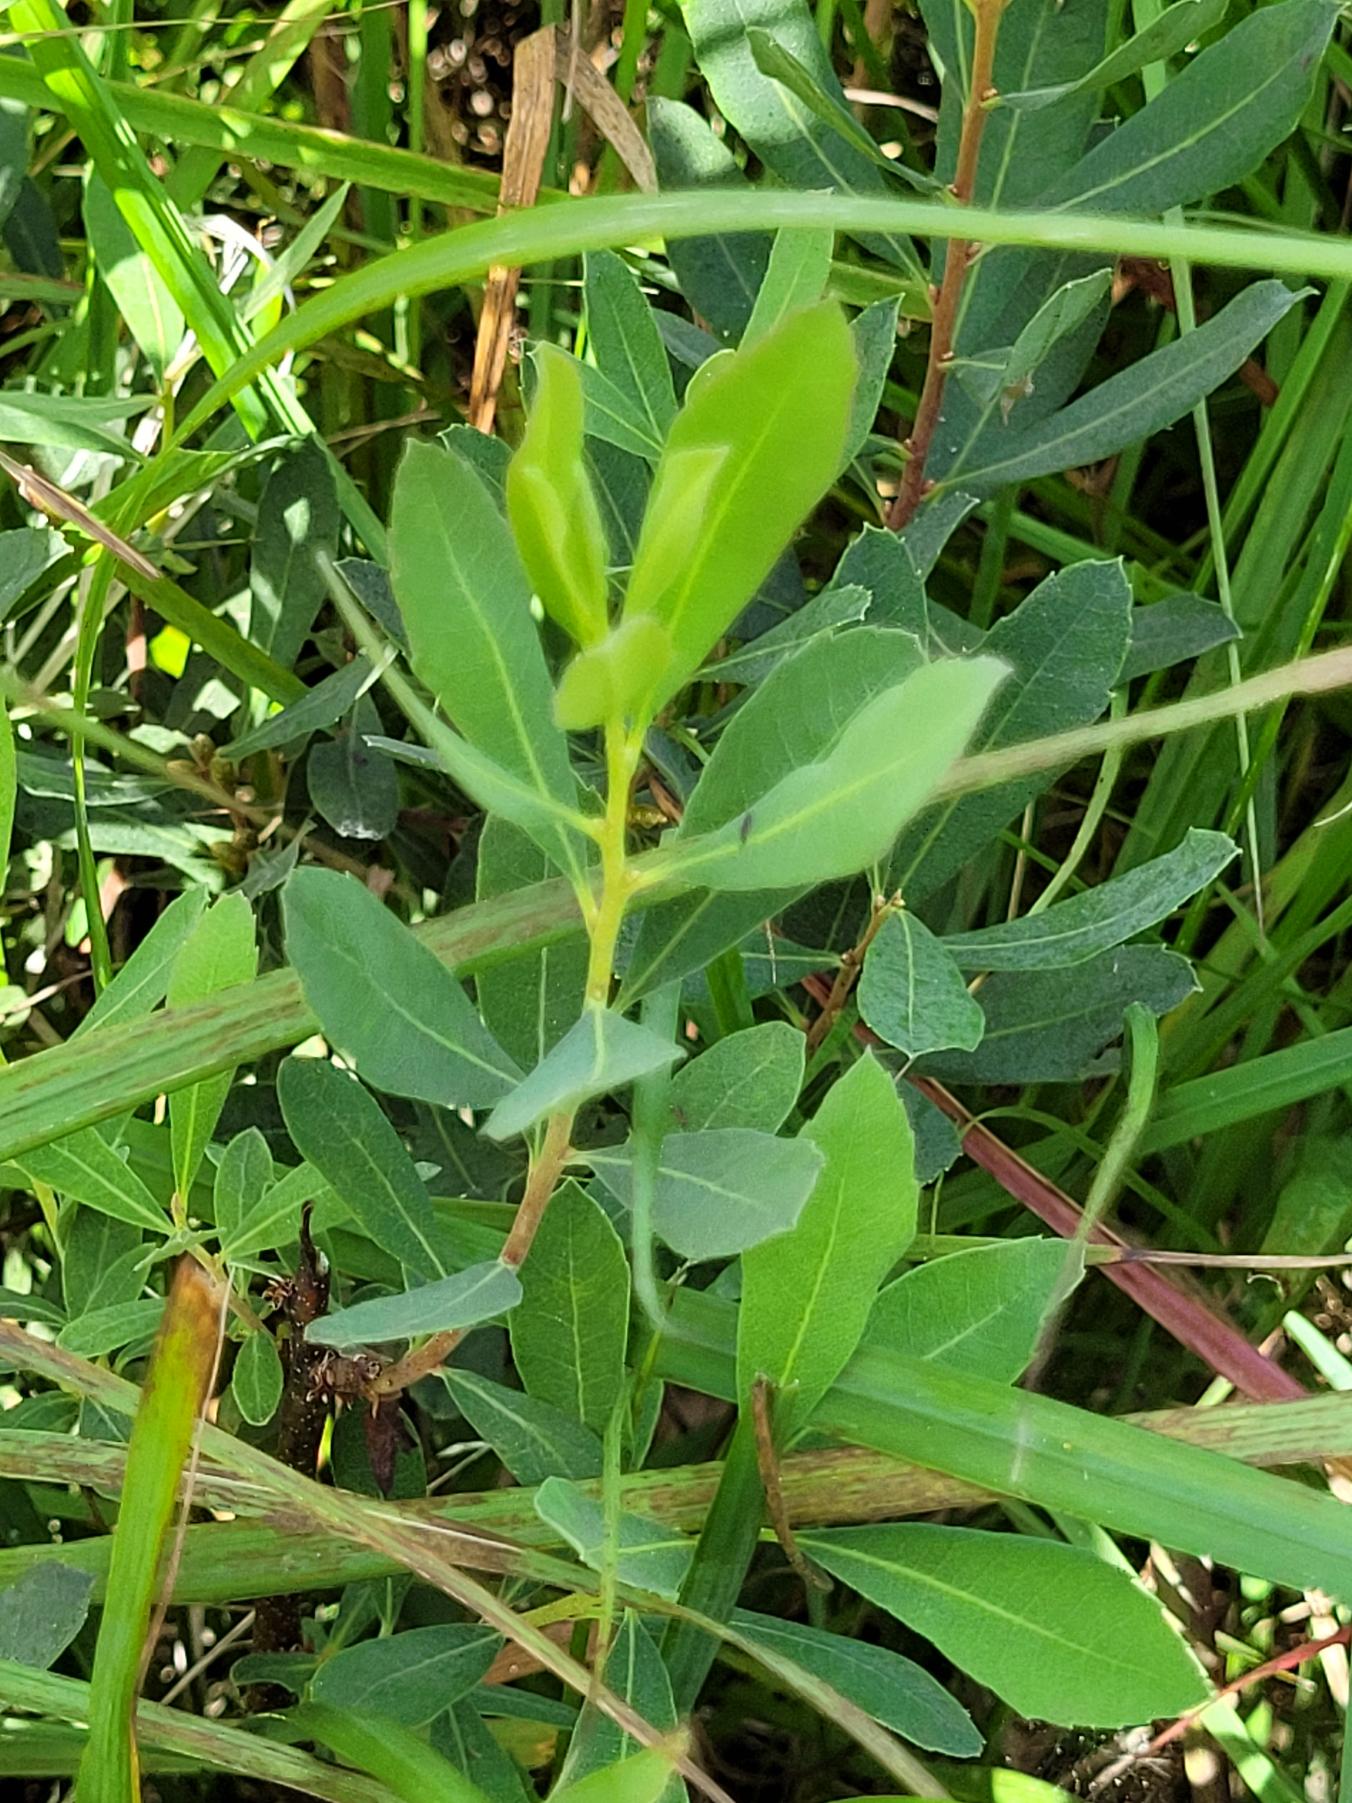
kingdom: Plantae
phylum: Tracheophyta
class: Magnoliopsida
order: Fagales
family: Myricaceae
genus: Myrica
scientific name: Myrica gale
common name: Pors
